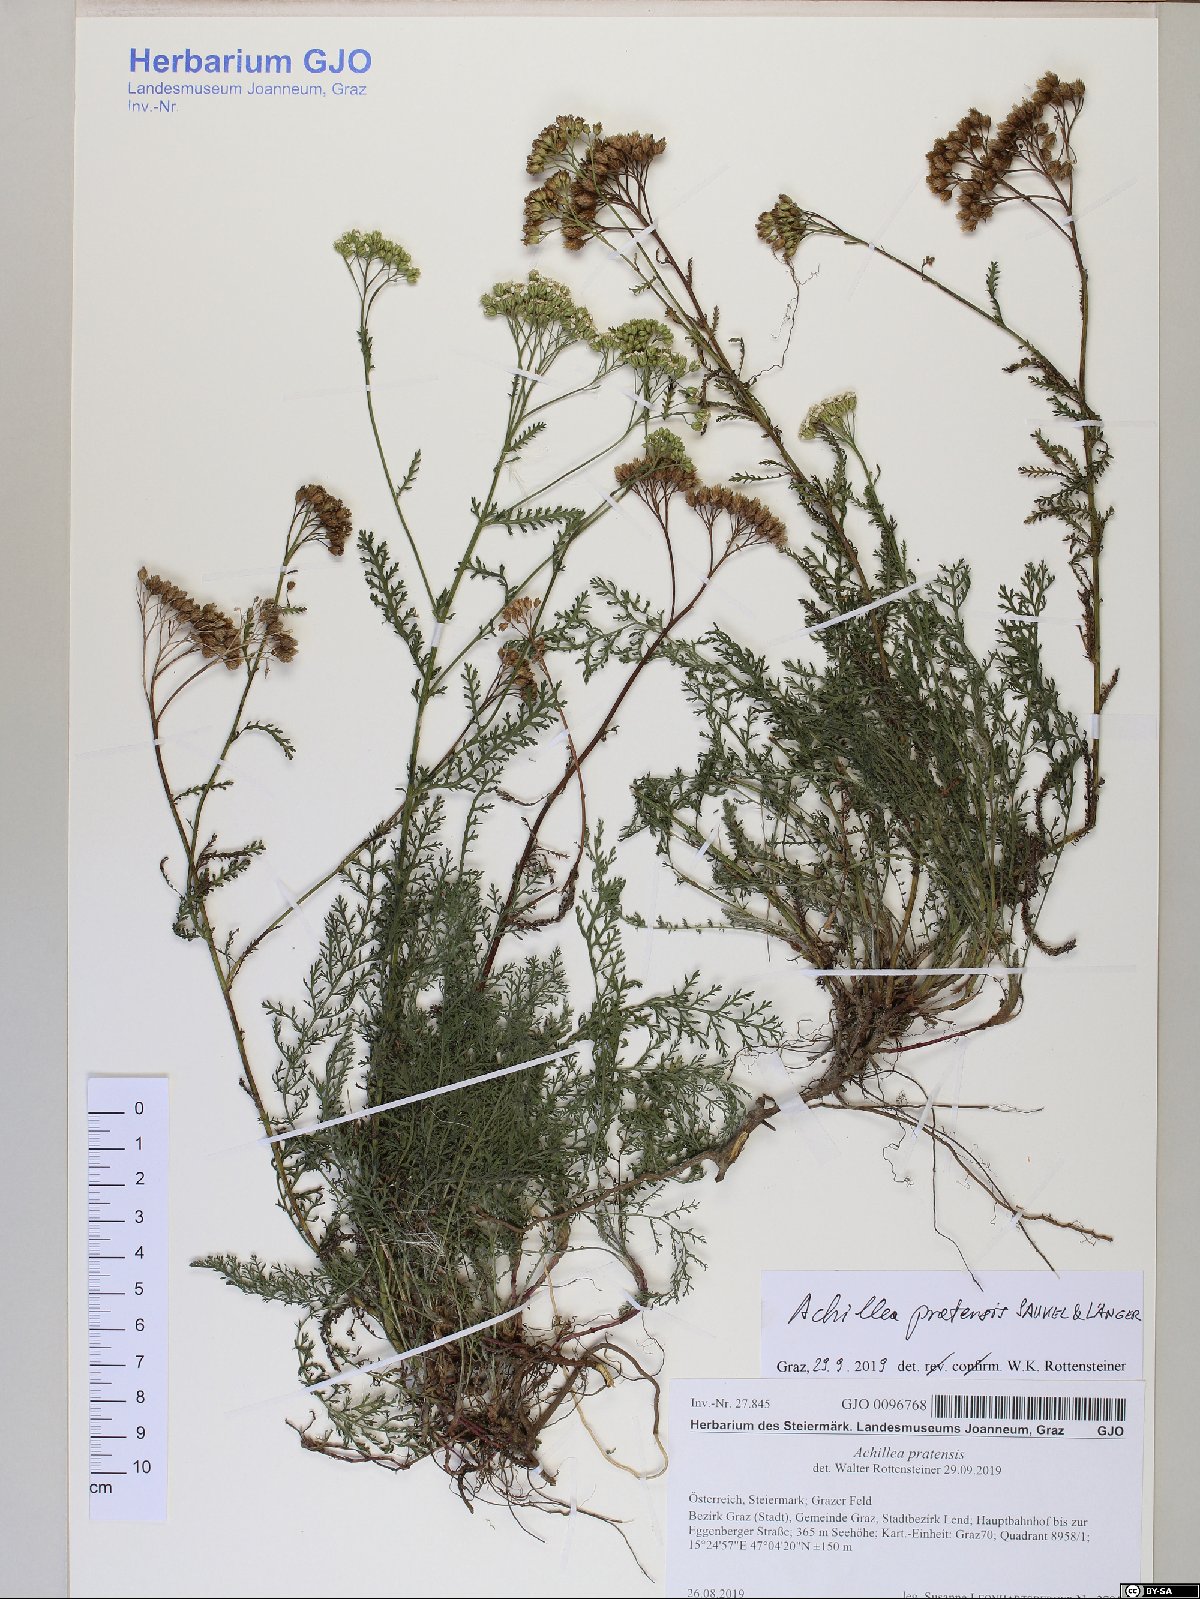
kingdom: Plantae
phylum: Tracheophyta
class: Magnoliopsida
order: Asterales
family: Asteraceae
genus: Achillea
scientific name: Achillea pratensis
